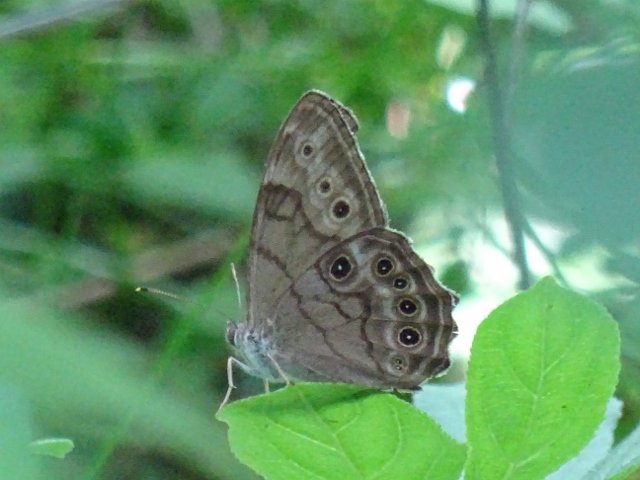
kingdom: Animalia
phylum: Arthropoda
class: Insecta
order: Lepidoptera
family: Nymphalidae
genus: Lethe
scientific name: Lethe anthedon
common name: Northern Pearly-Eye
